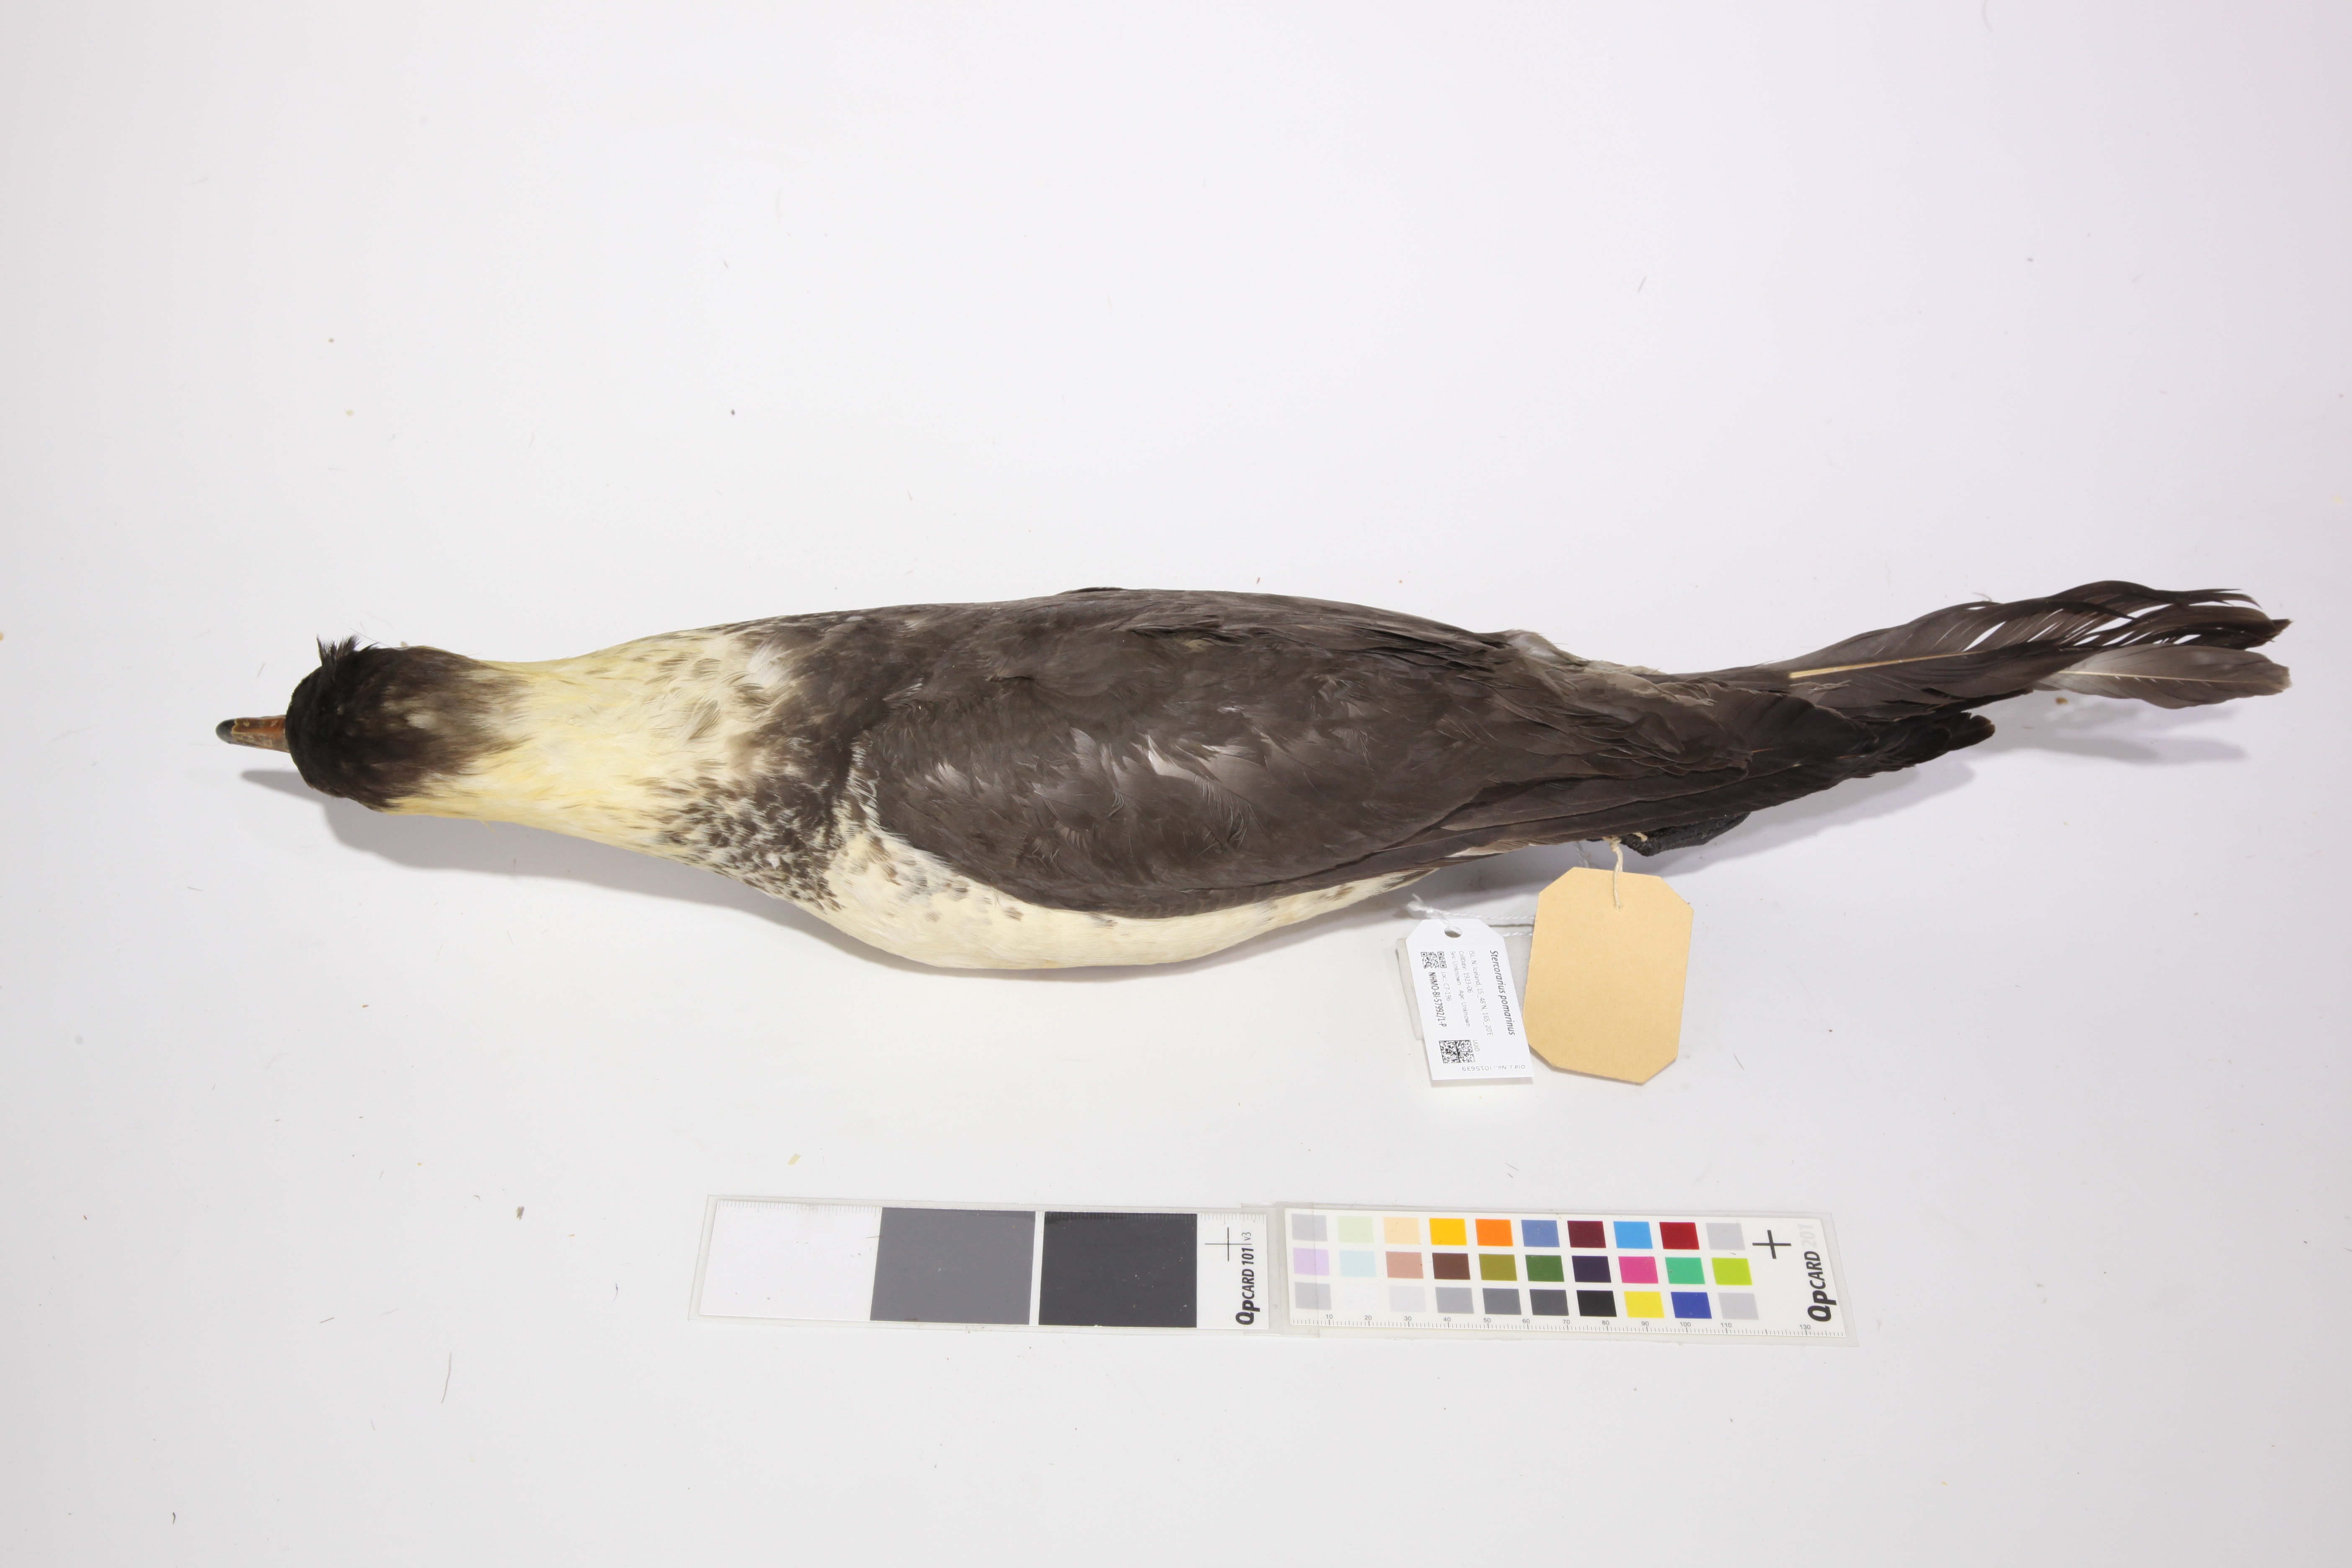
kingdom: Animalia
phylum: Chordata
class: Aves
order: Charadriiformes
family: Stercorariidae
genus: Stercorarius
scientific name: Stercorarius pomarinus
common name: Pomarine jaeger
